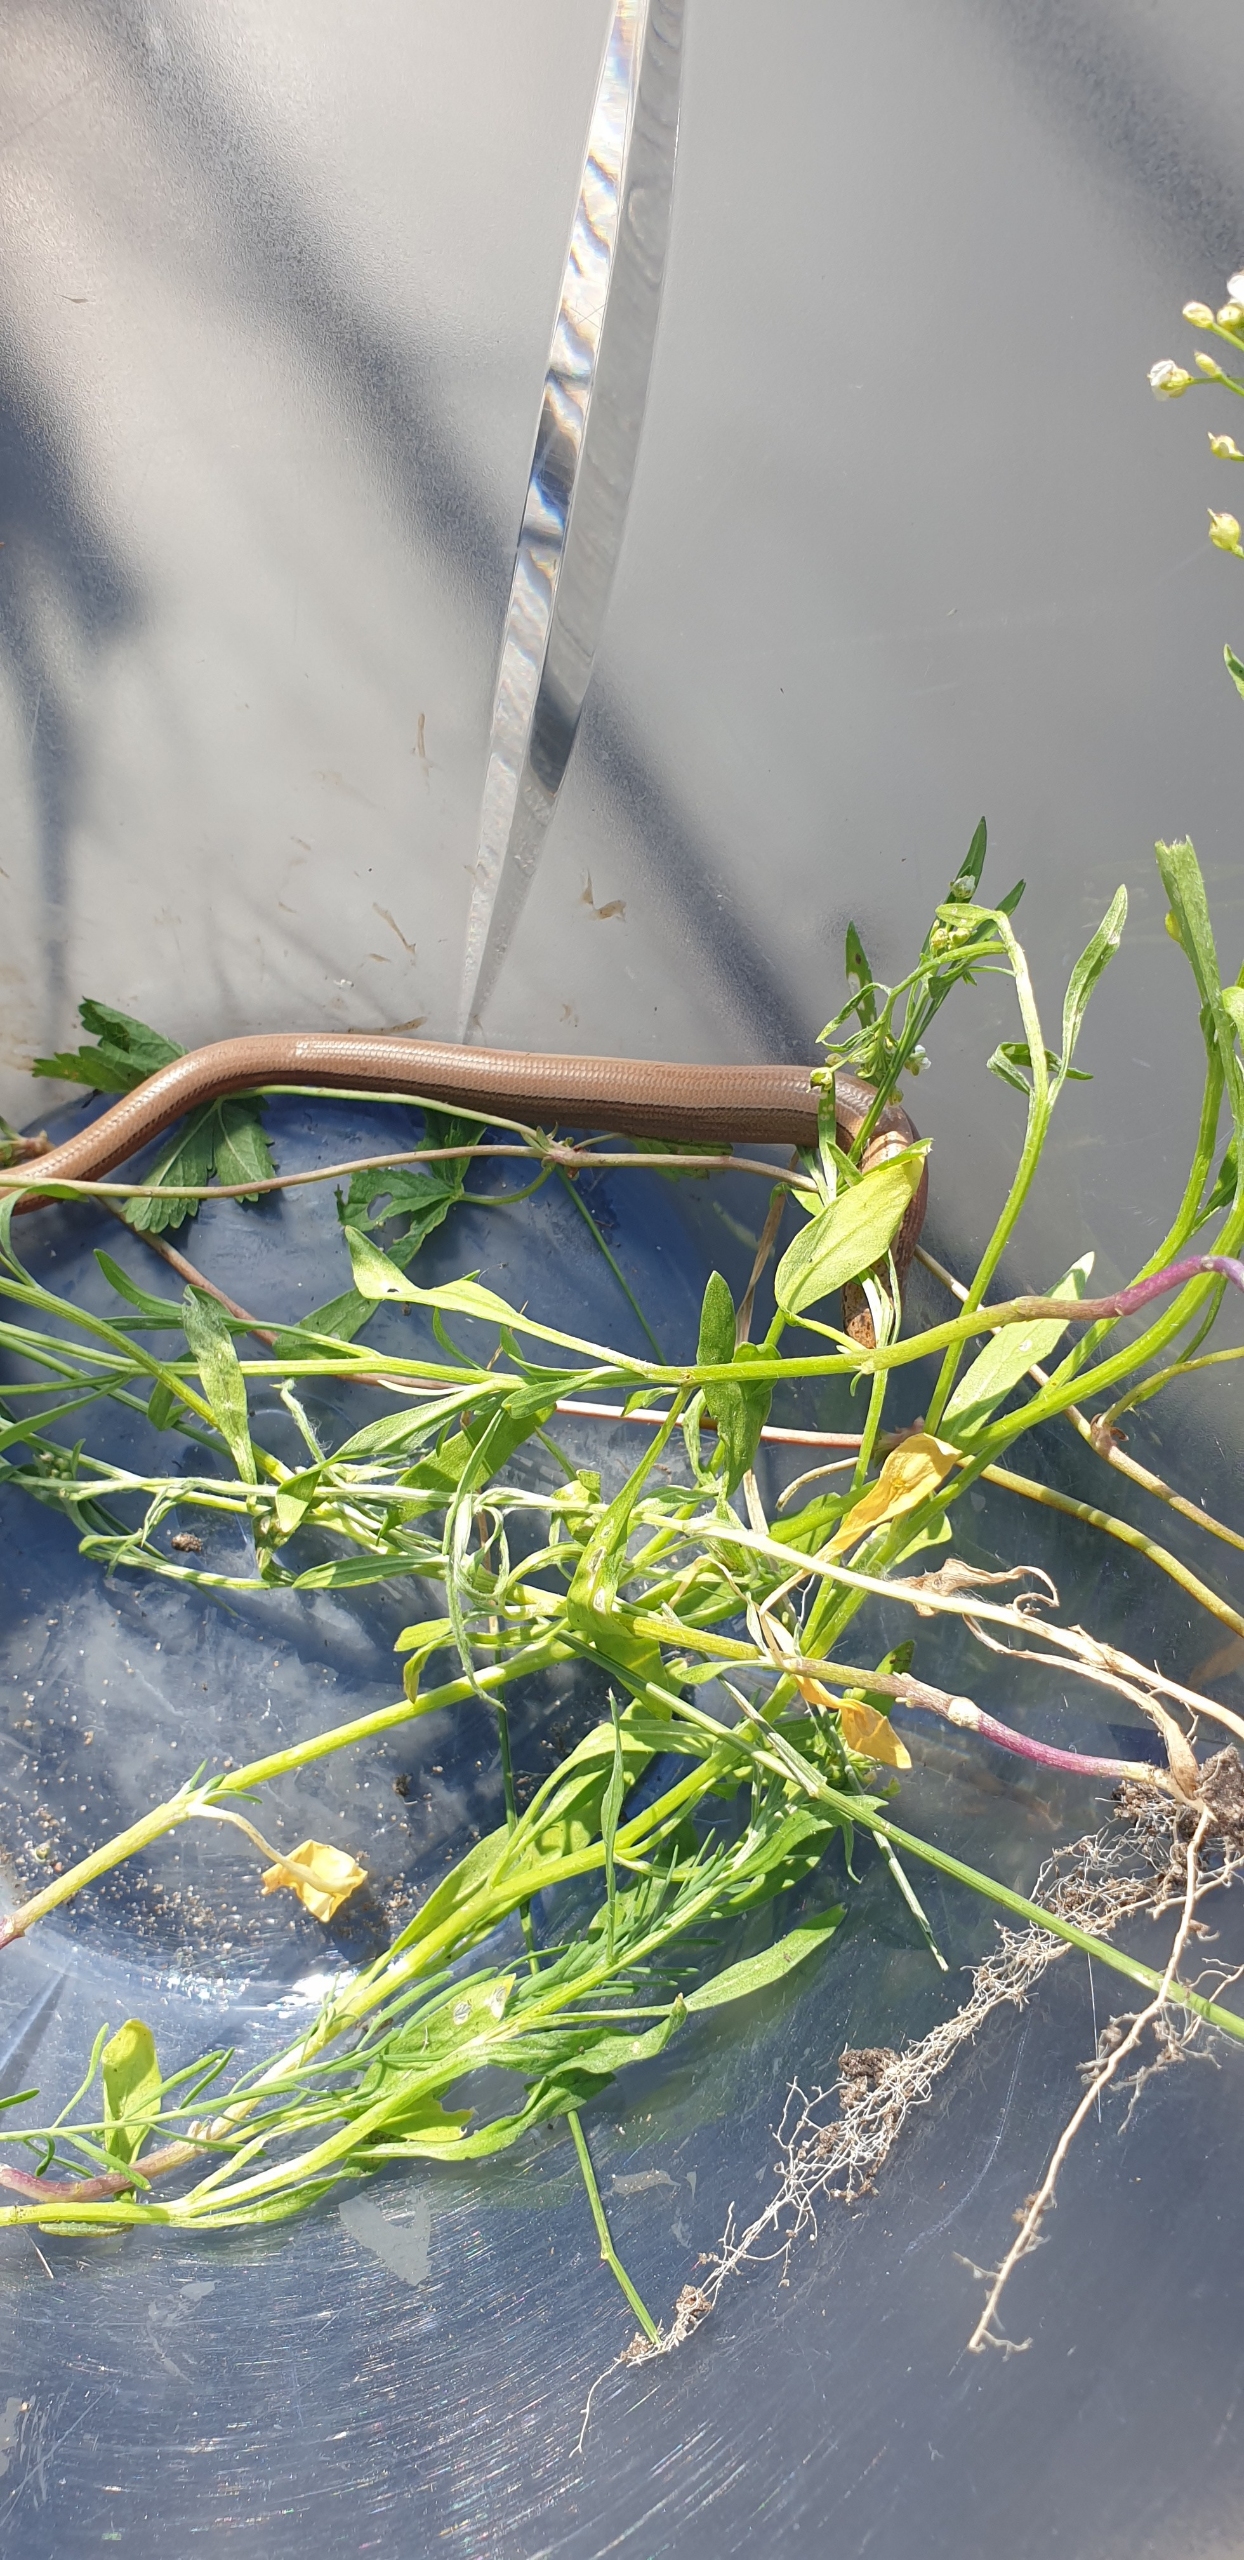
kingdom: Animalia
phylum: Chordata
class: Squamata
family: Anguidae
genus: Anguis
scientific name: Anguis fragilis
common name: Stålorm
